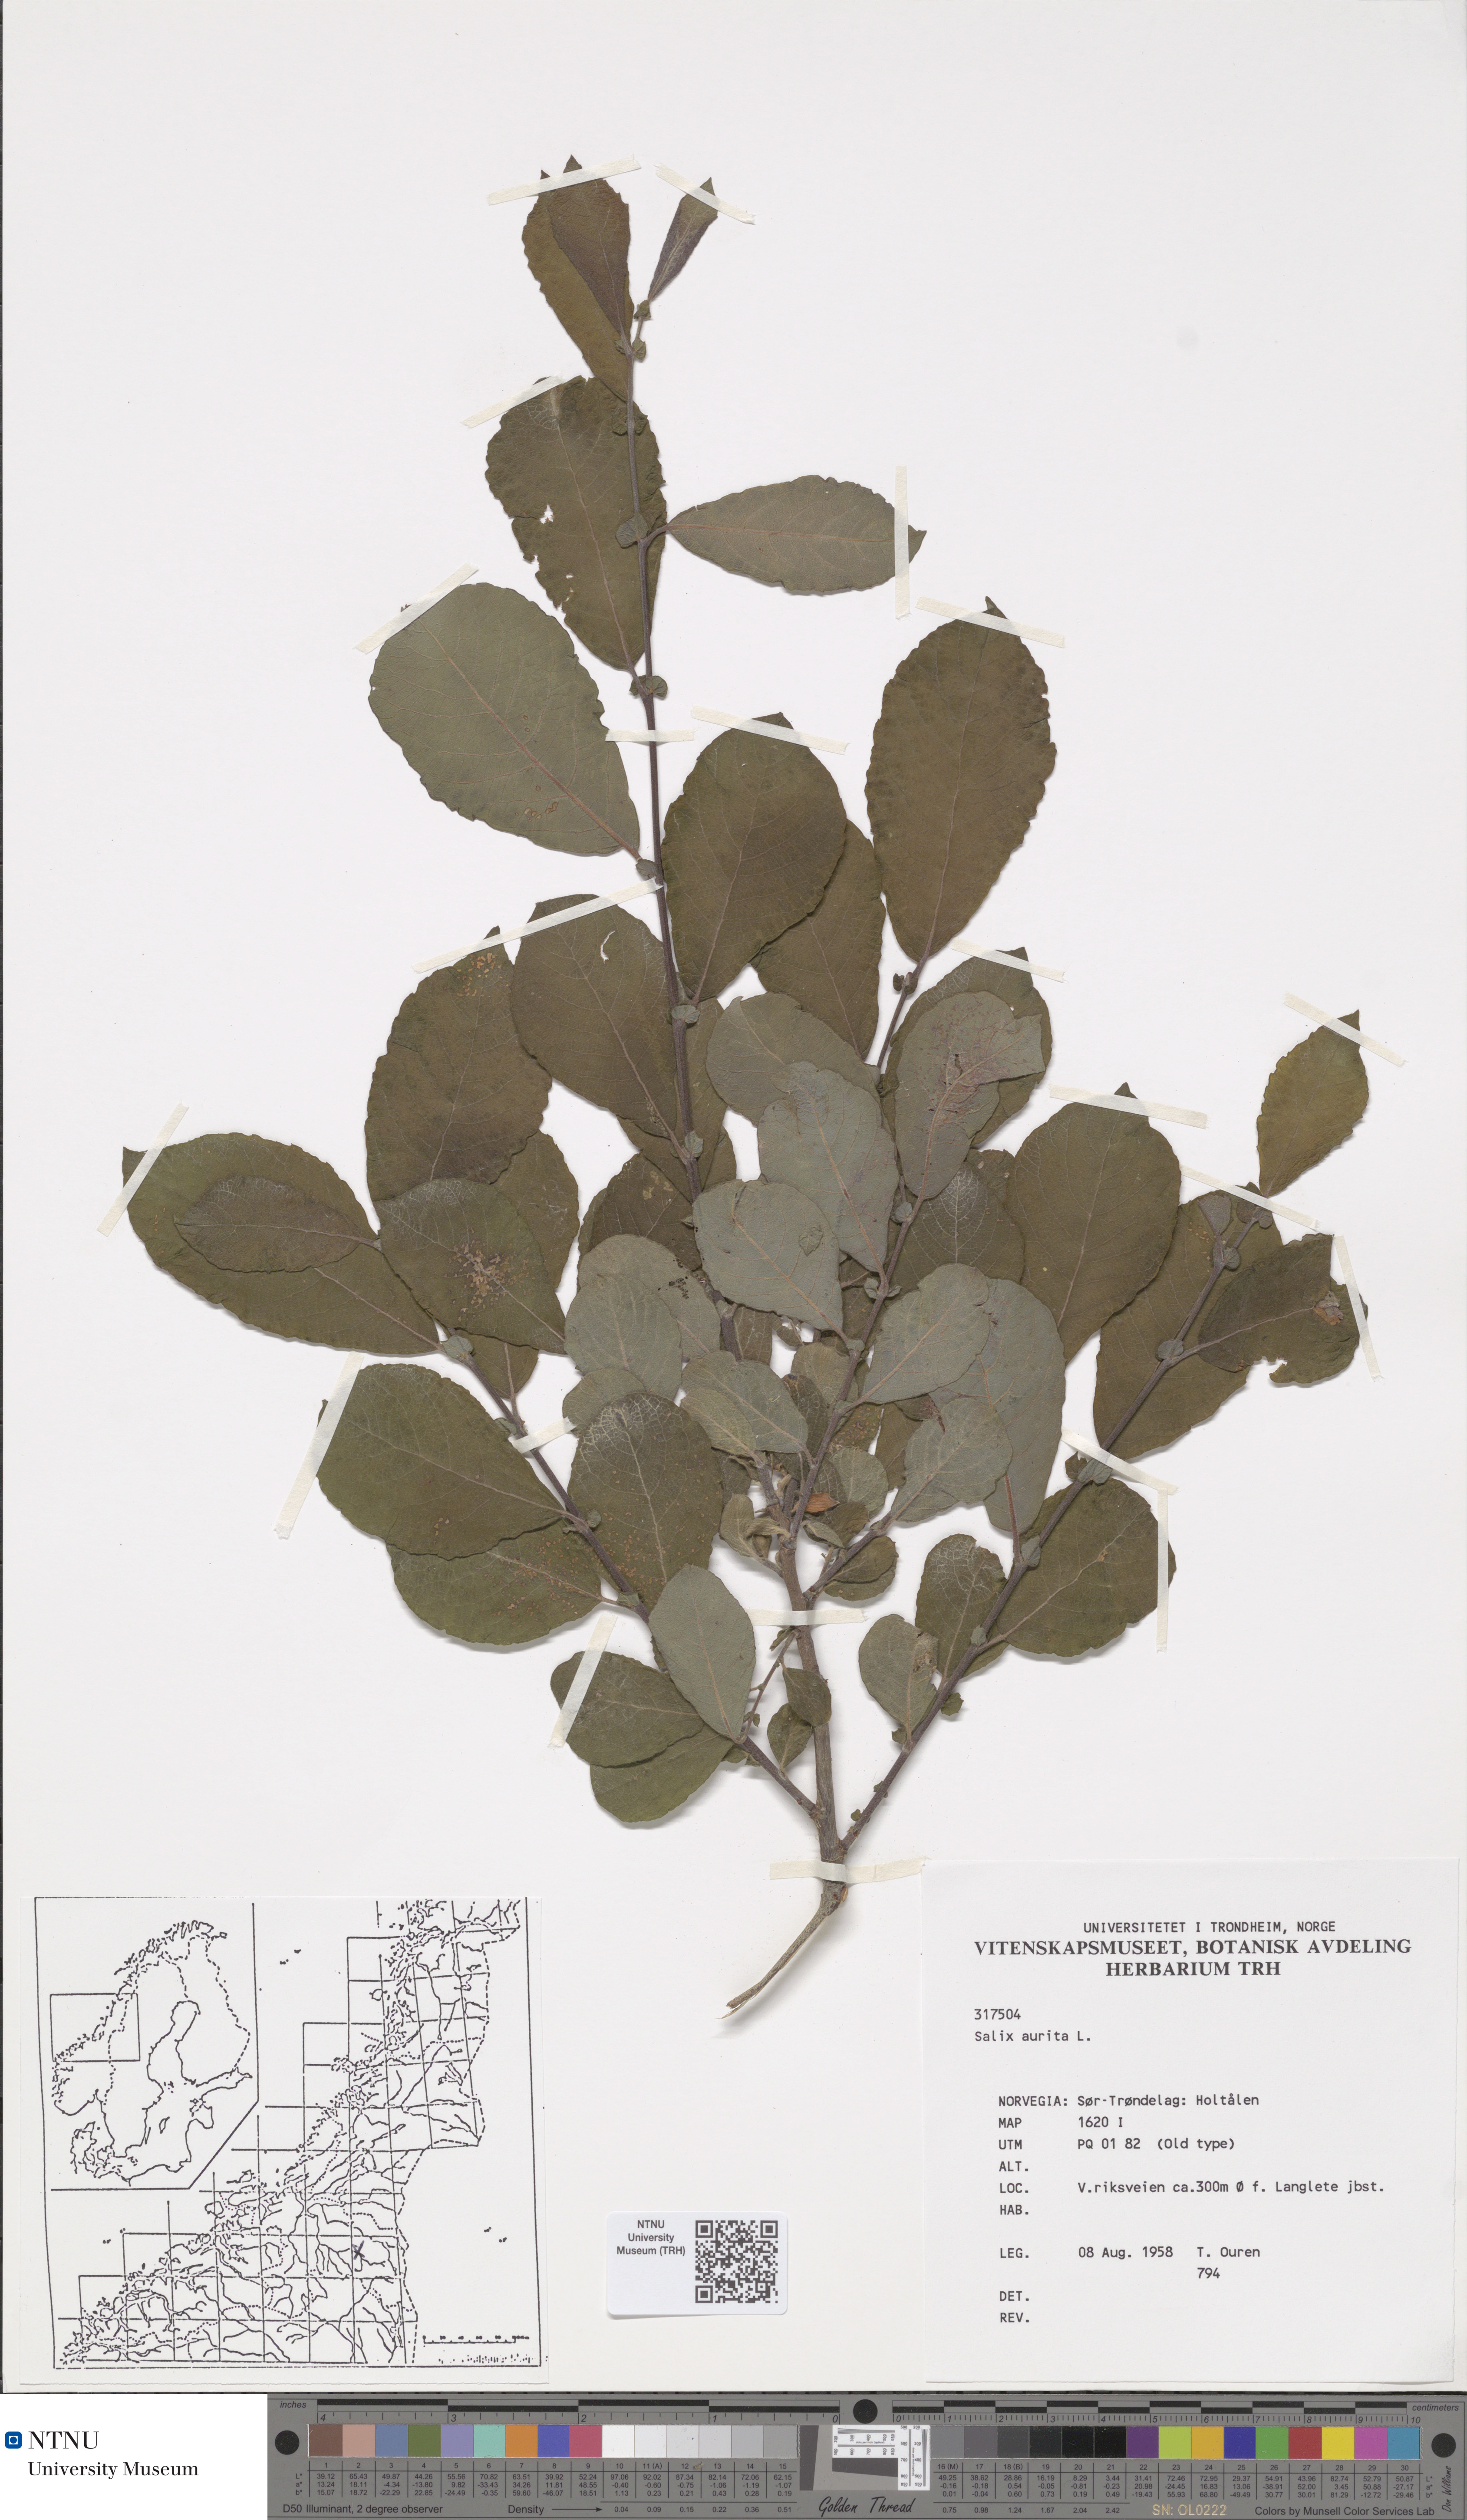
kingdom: Plantae
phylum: Tracheophyta
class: Magnoliopsida
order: Malpighiales
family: Salicaceae
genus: Salix
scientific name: Salix aurita
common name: Eared willow
